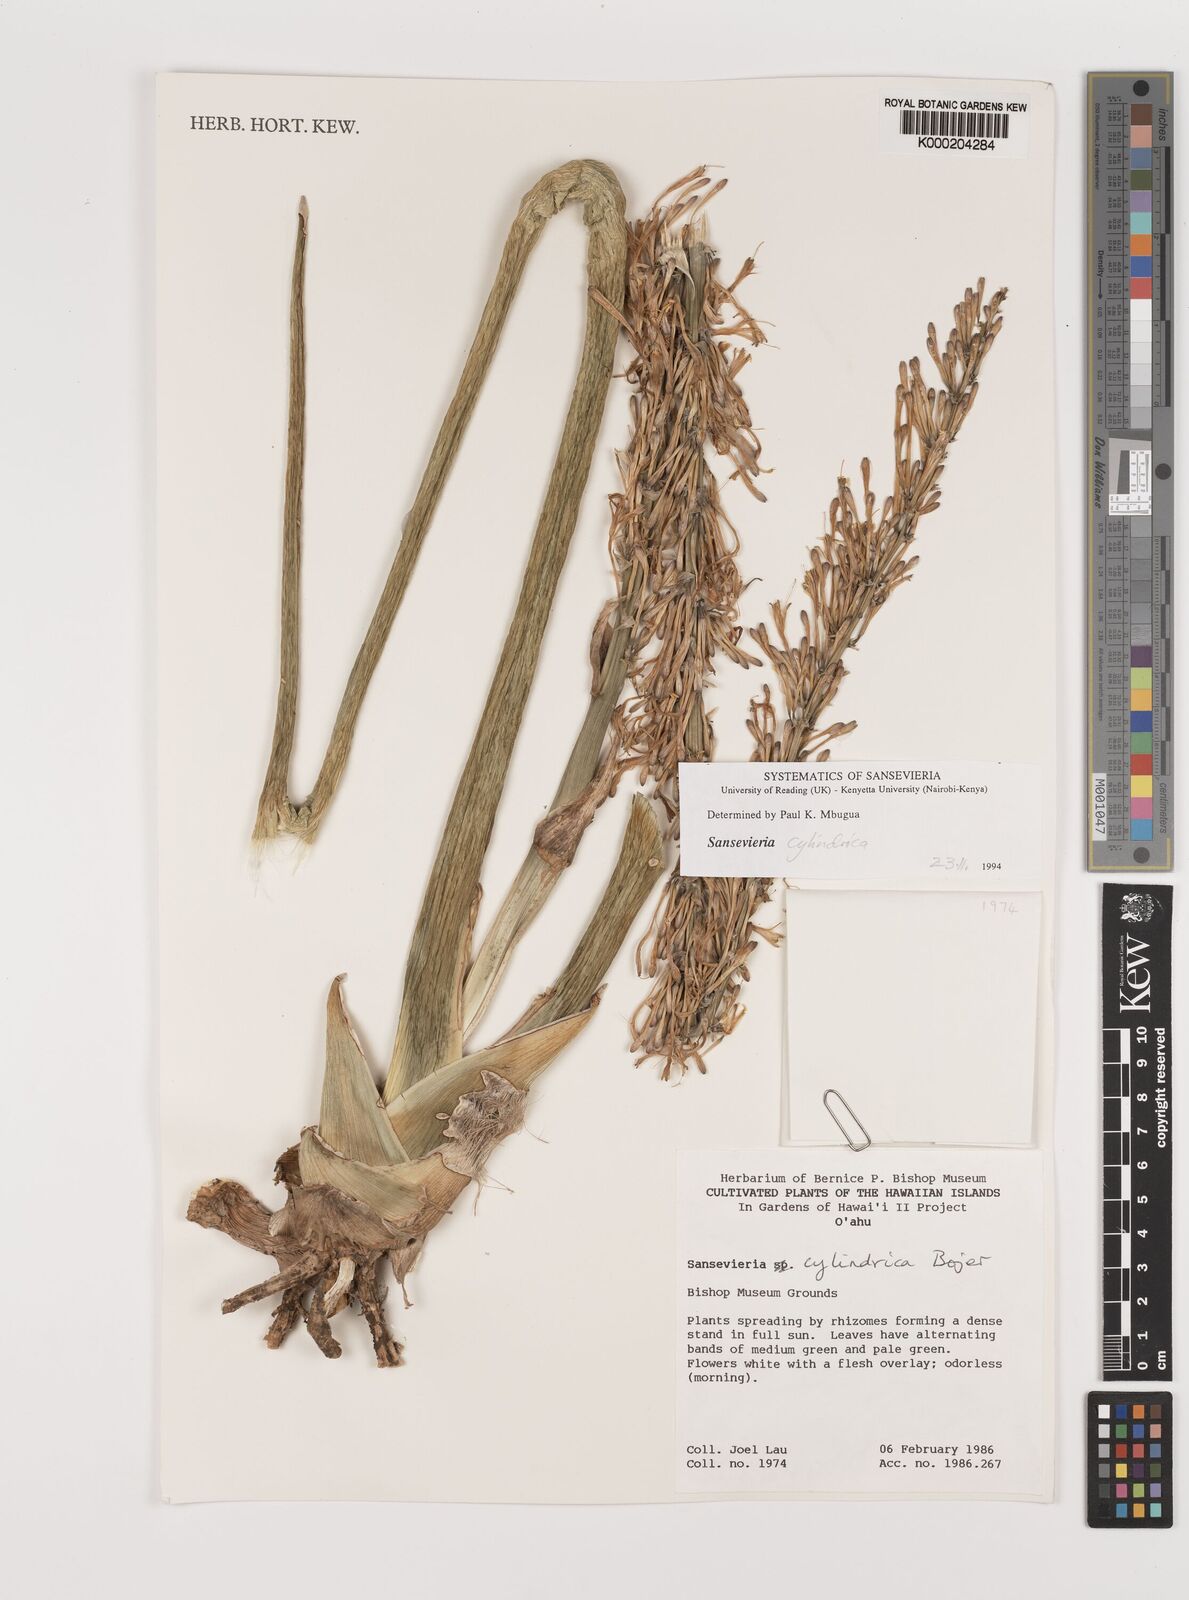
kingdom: Plantae
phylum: Tracheophyta
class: Liliopsida
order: Asparagales
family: Asparagaceae
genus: Dracaena
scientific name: Dracaena angolensis
